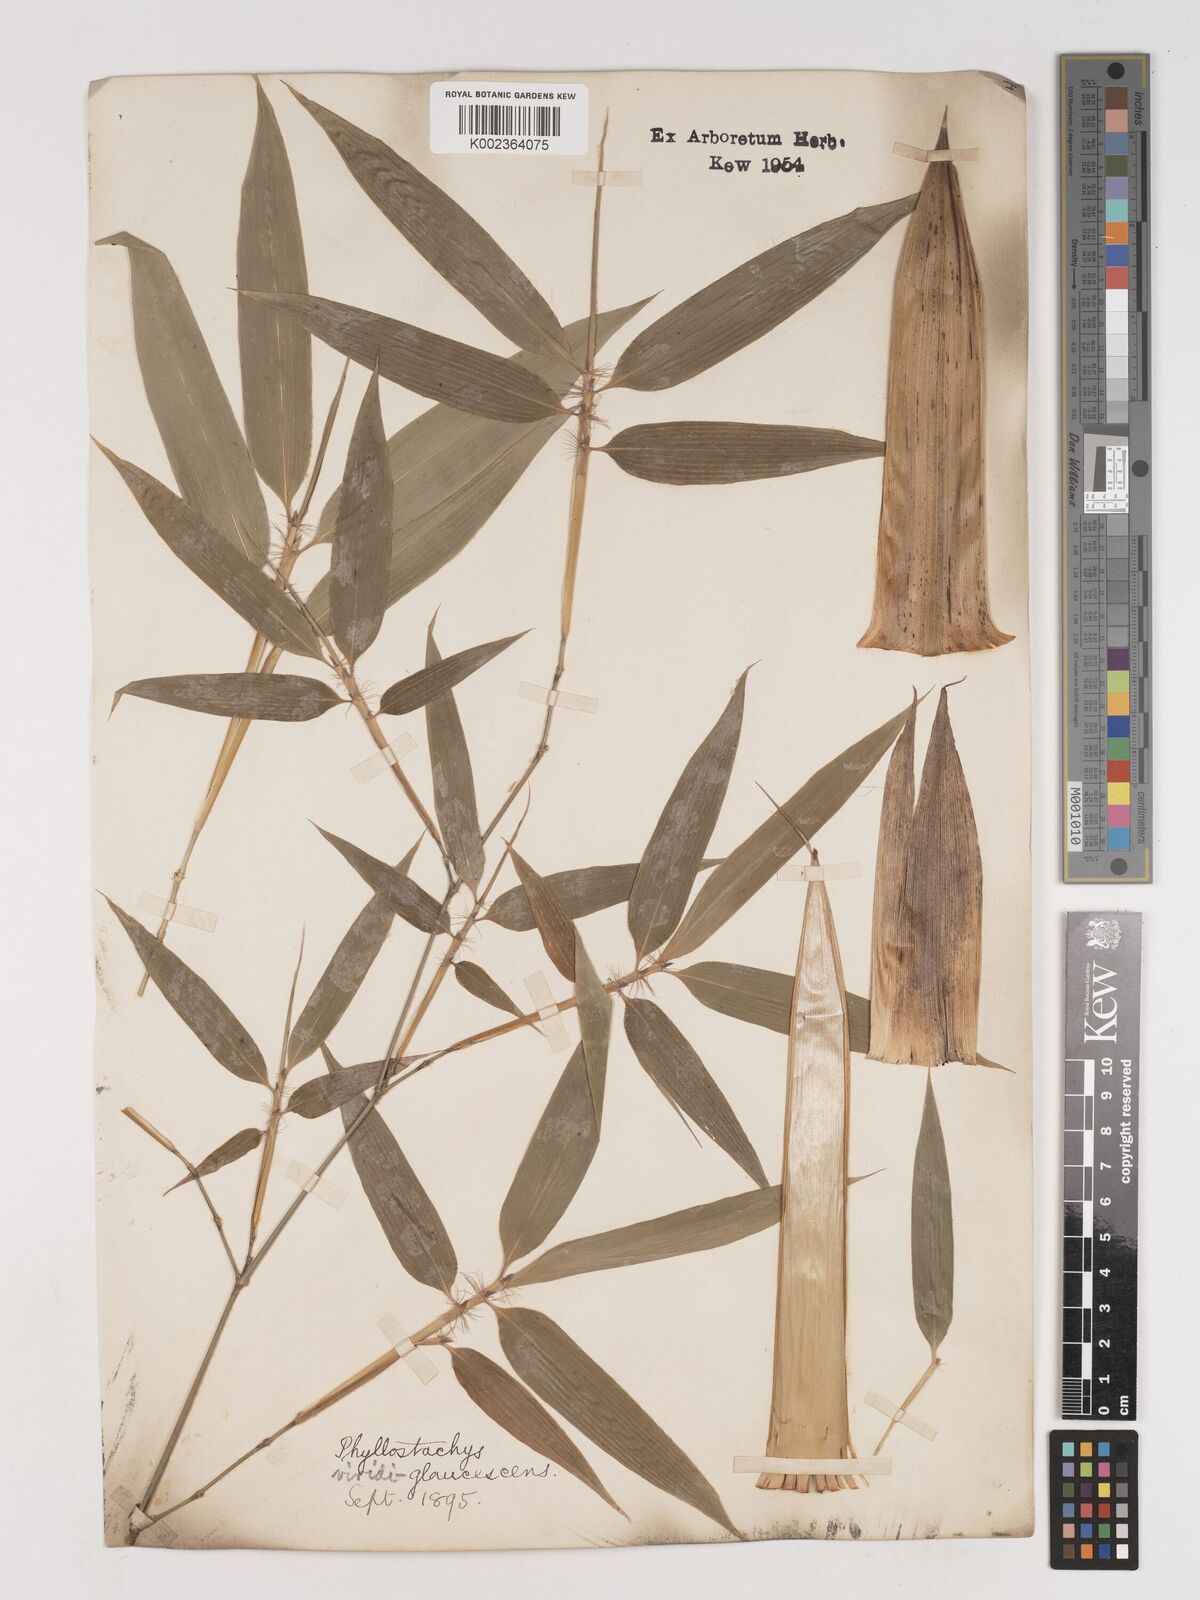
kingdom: Plantae
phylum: Tracheophyta
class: Liliopsida
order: Poales
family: Poaceae
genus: Phyllostachys
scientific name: Phyllostachys viridiglaucescens
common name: Greenwax golden bamboo
